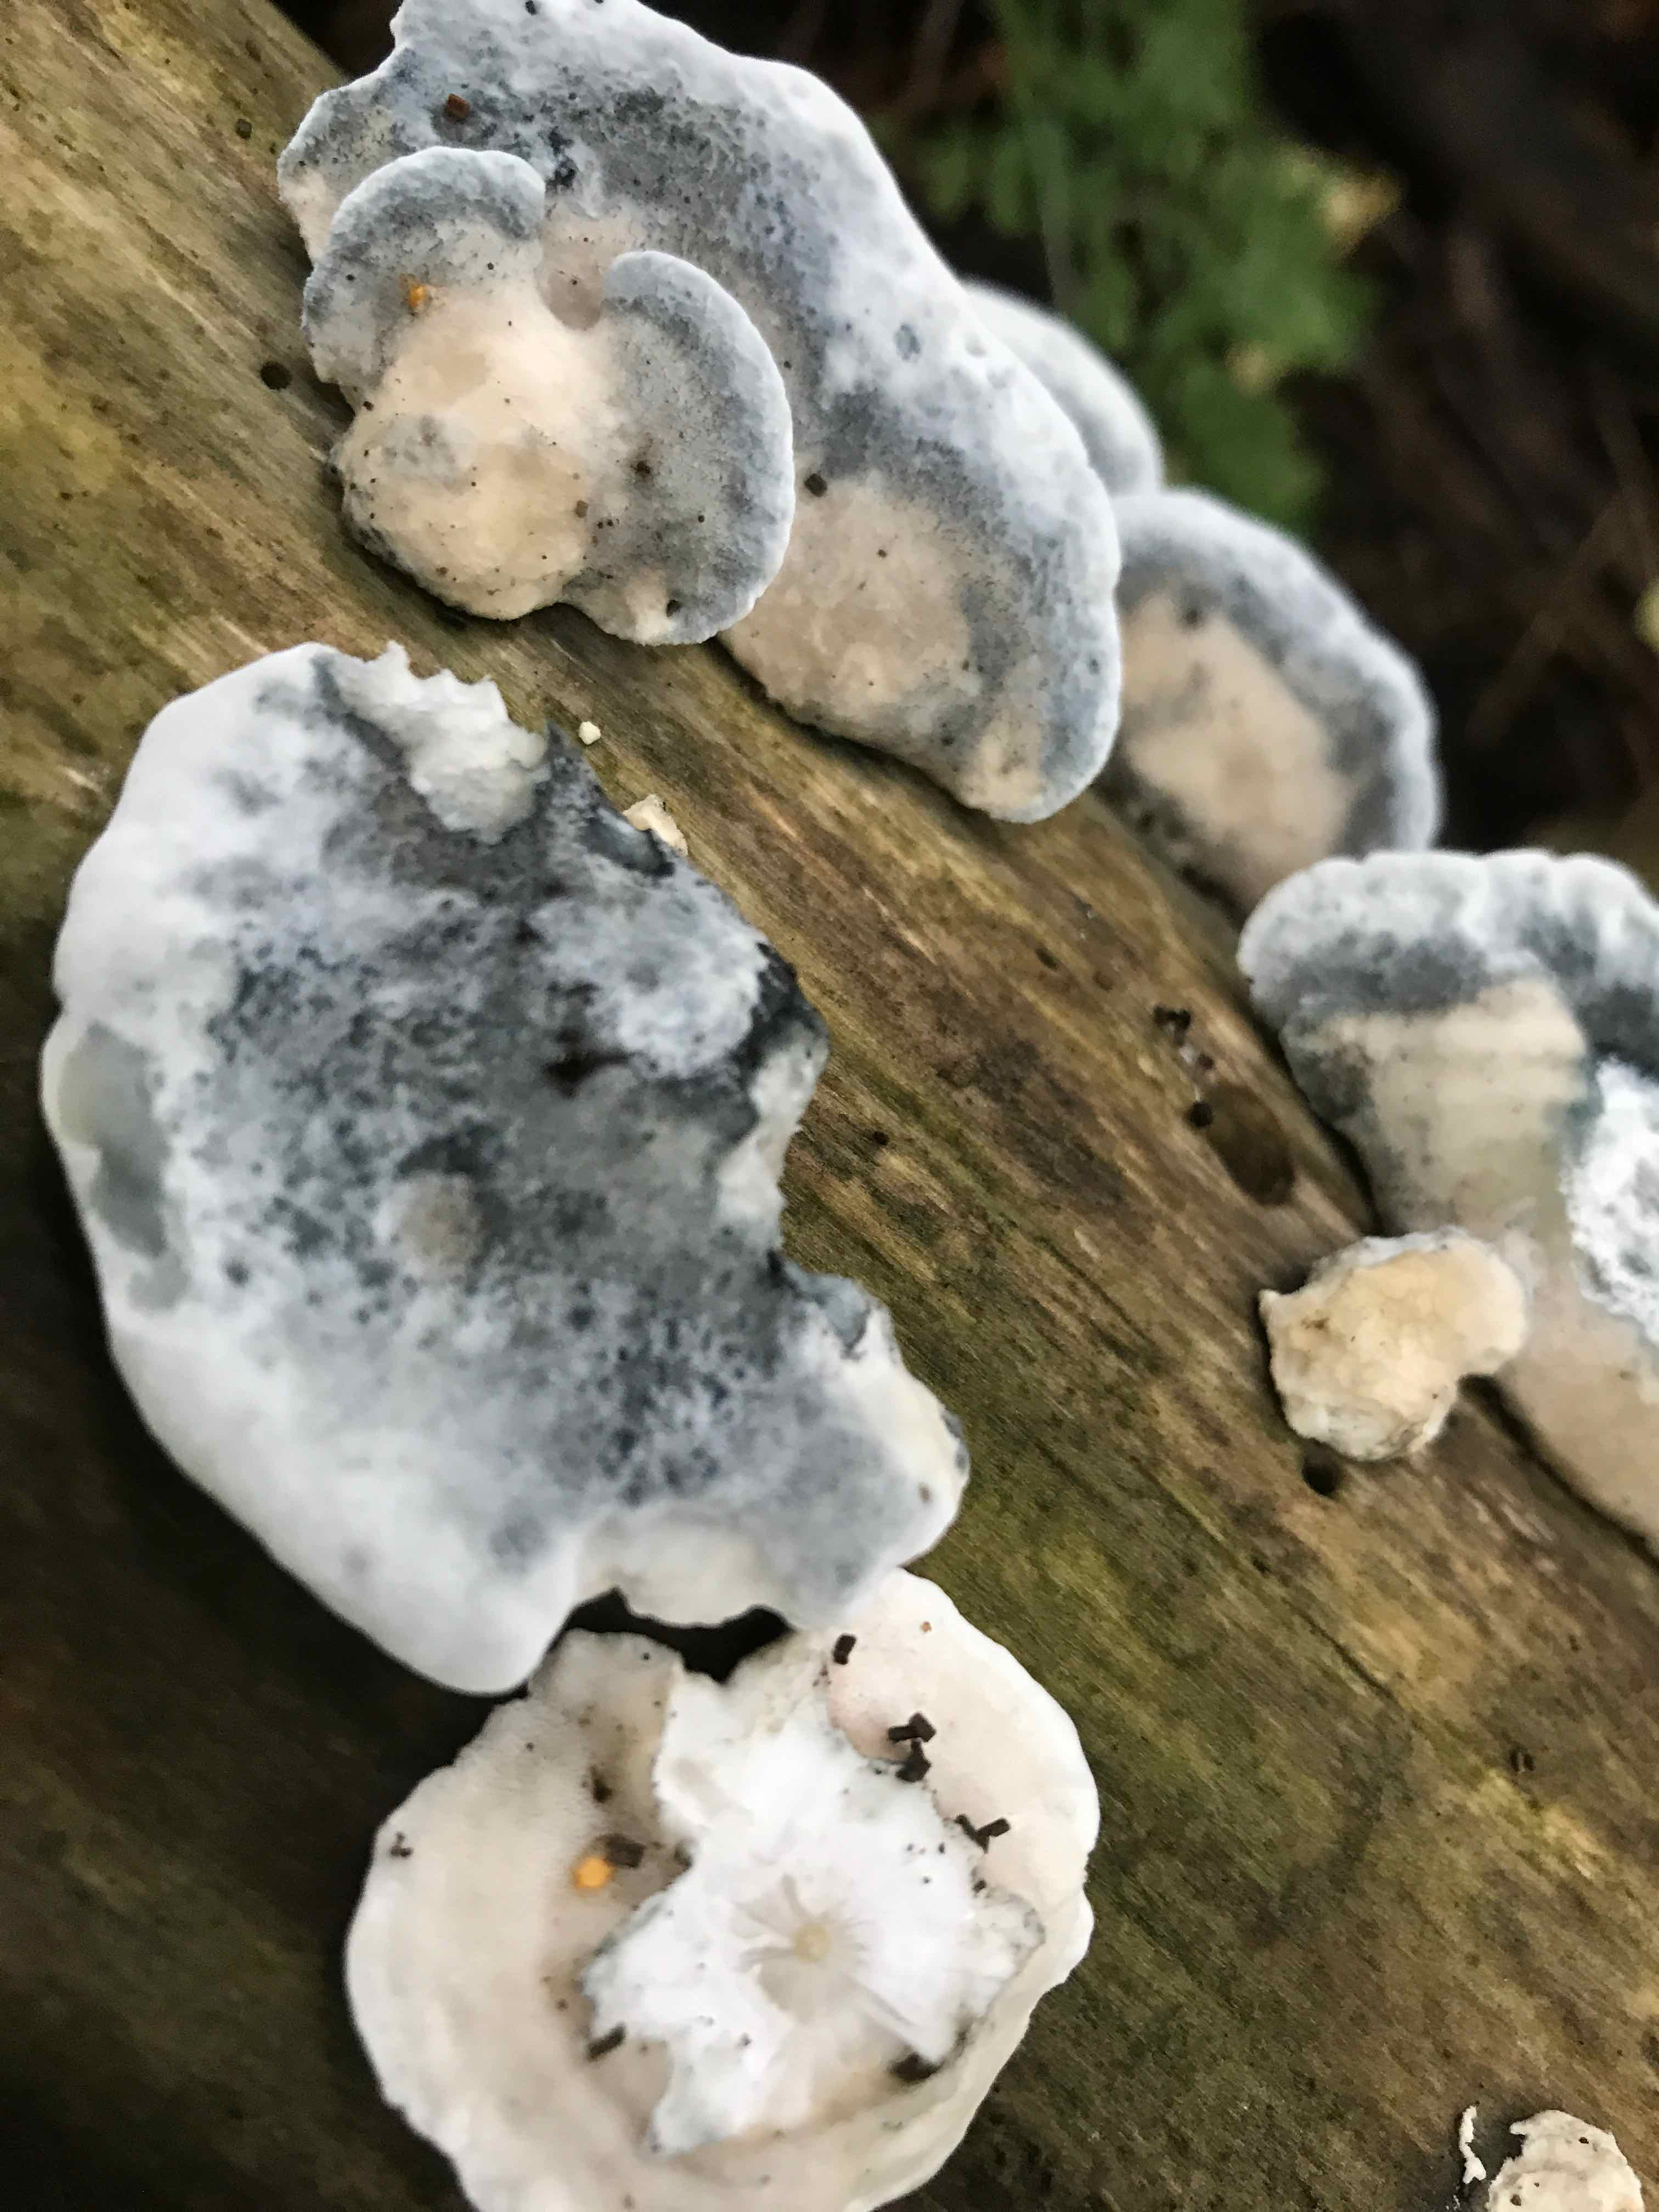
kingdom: Fungi
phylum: Basidiomycota
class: Agaricomycetes
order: Polyporales
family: Polyporaceae
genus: Cyanosporus
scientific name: Cyanosporus alni
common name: blegblå kødporesvamp
